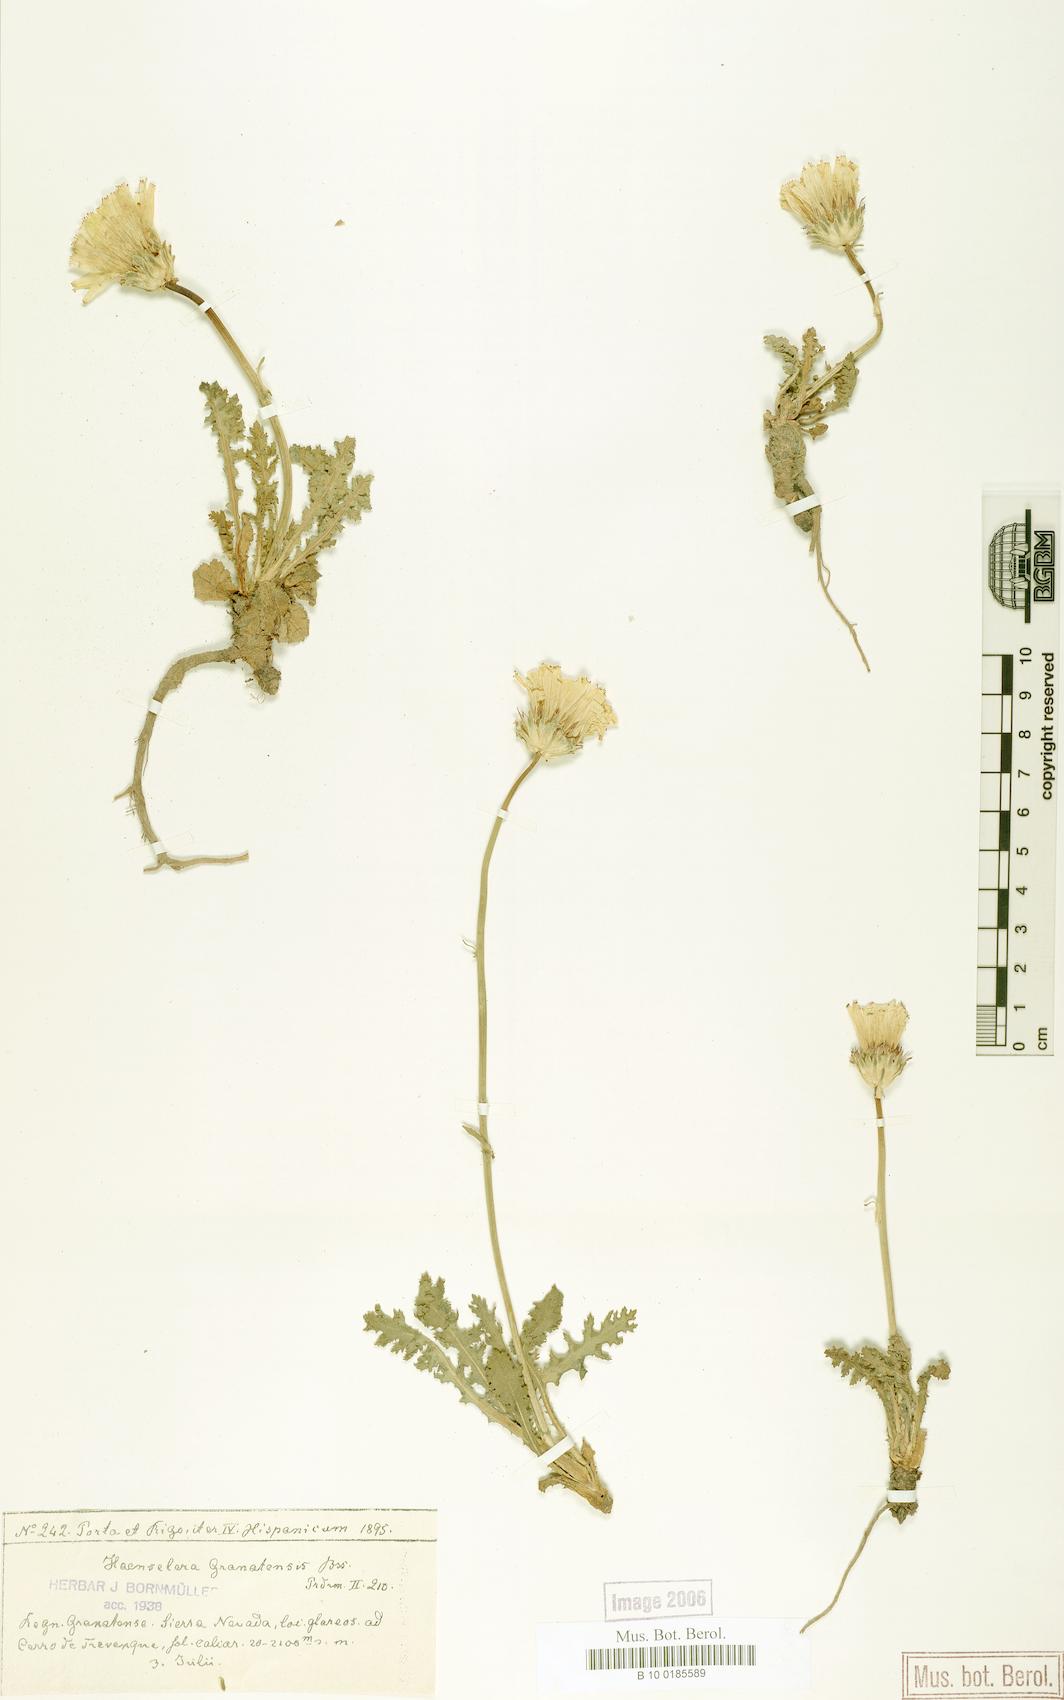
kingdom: Plantae
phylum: Tracheophyta
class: Magnoliopsida
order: Asterales
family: Asteraceae
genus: Rothmaleria
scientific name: Rothmaleria granatensis
